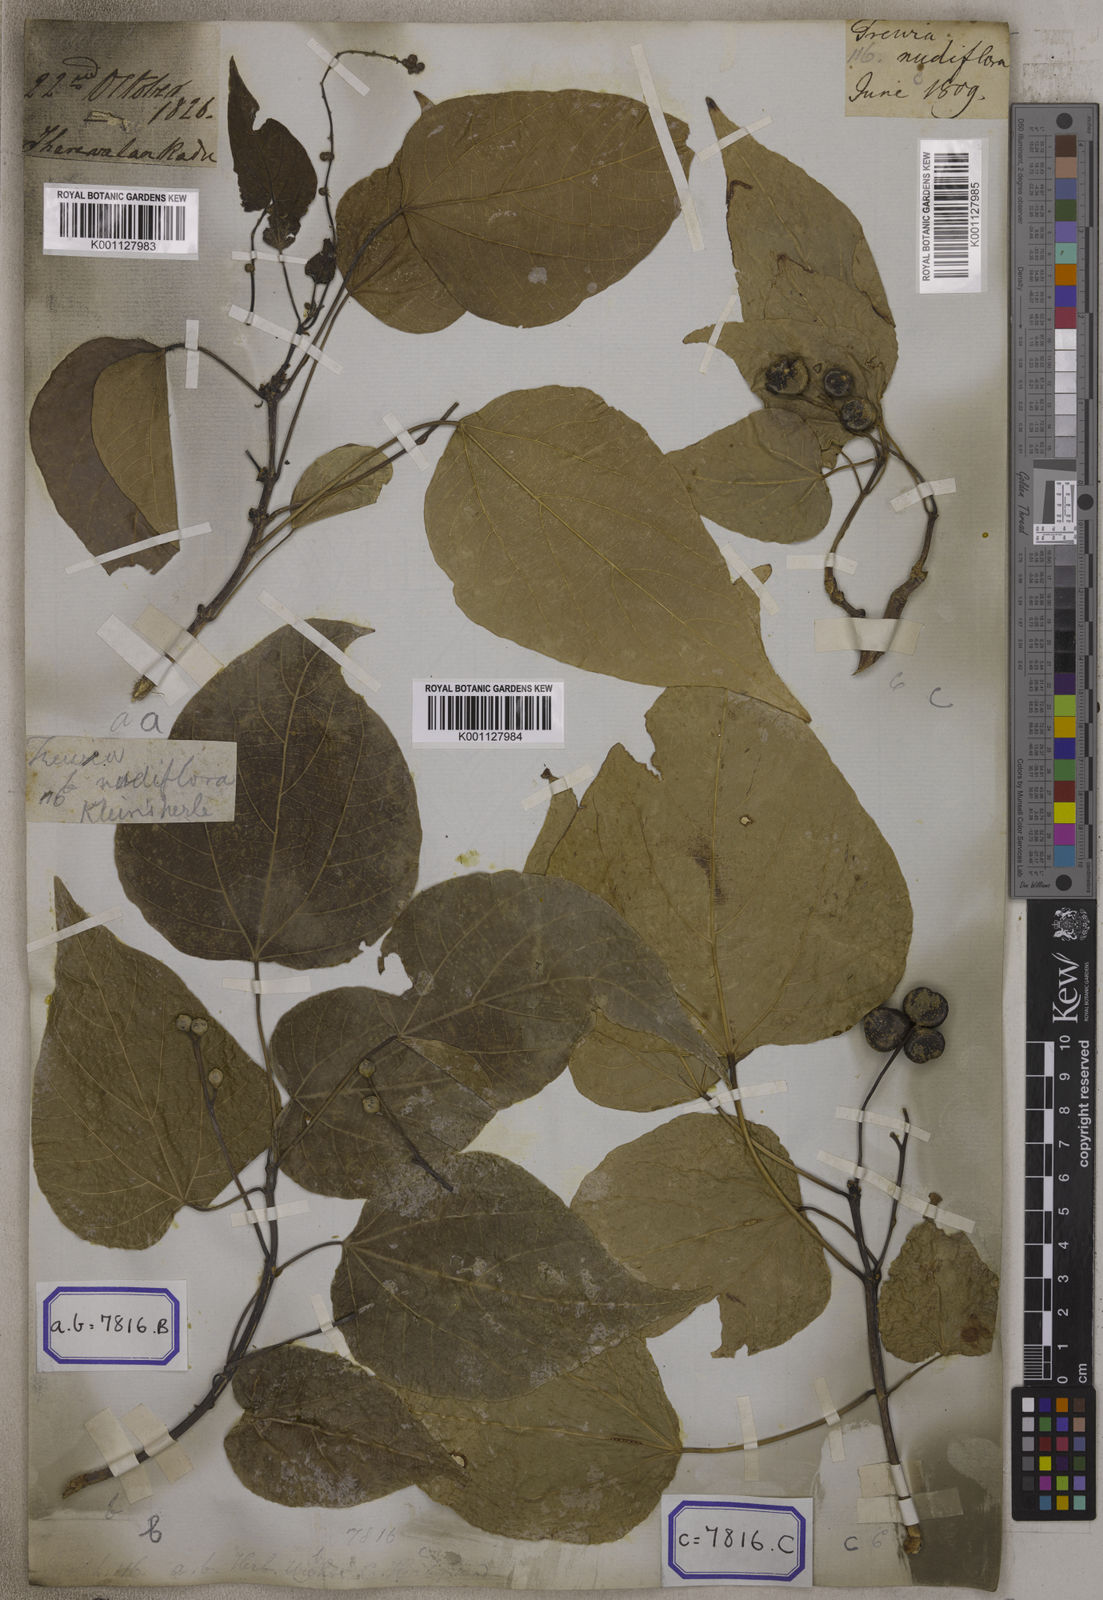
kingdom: Plantae
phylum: Tracheophyta
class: Magnoliopsida
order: Malpighiales
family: Euphorbiaceae
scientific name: Euphorbiaceae
